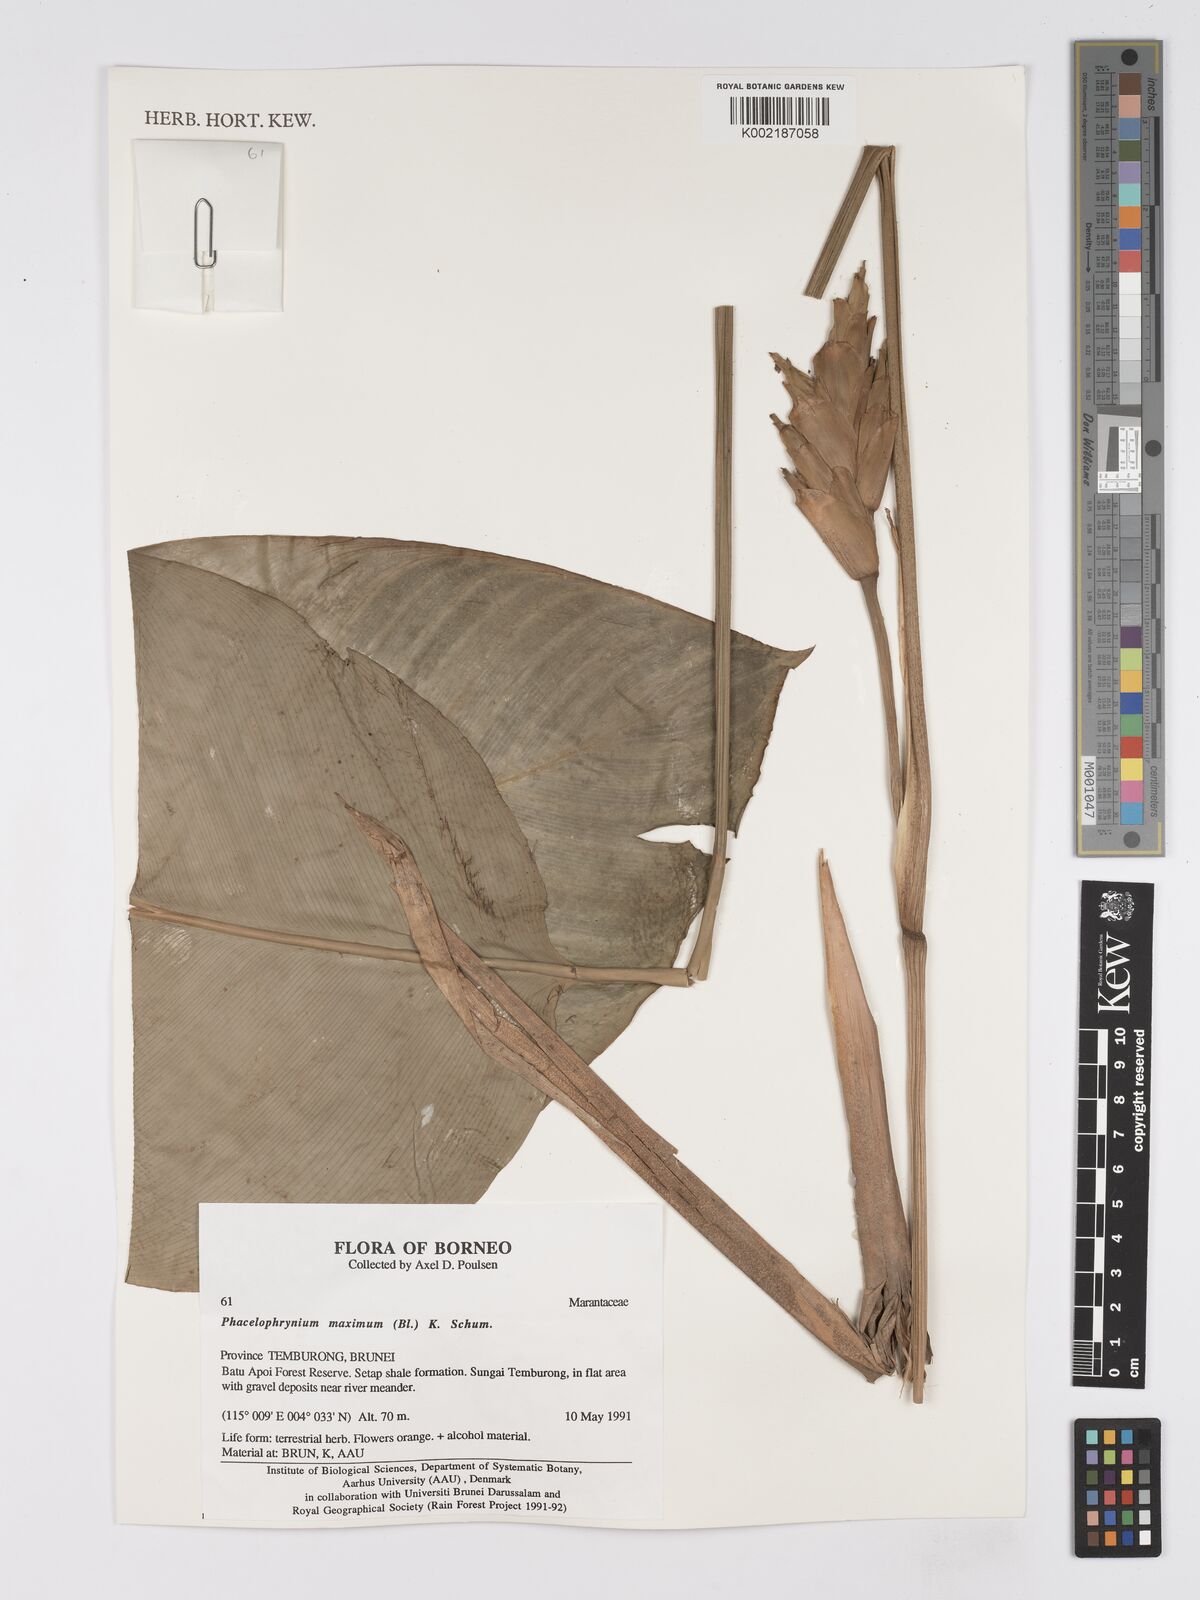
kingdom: Plantae
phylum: Tracheophyta
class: Liliopsida
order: Zingiberales
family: Marantaceae
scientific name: Marantaceae
